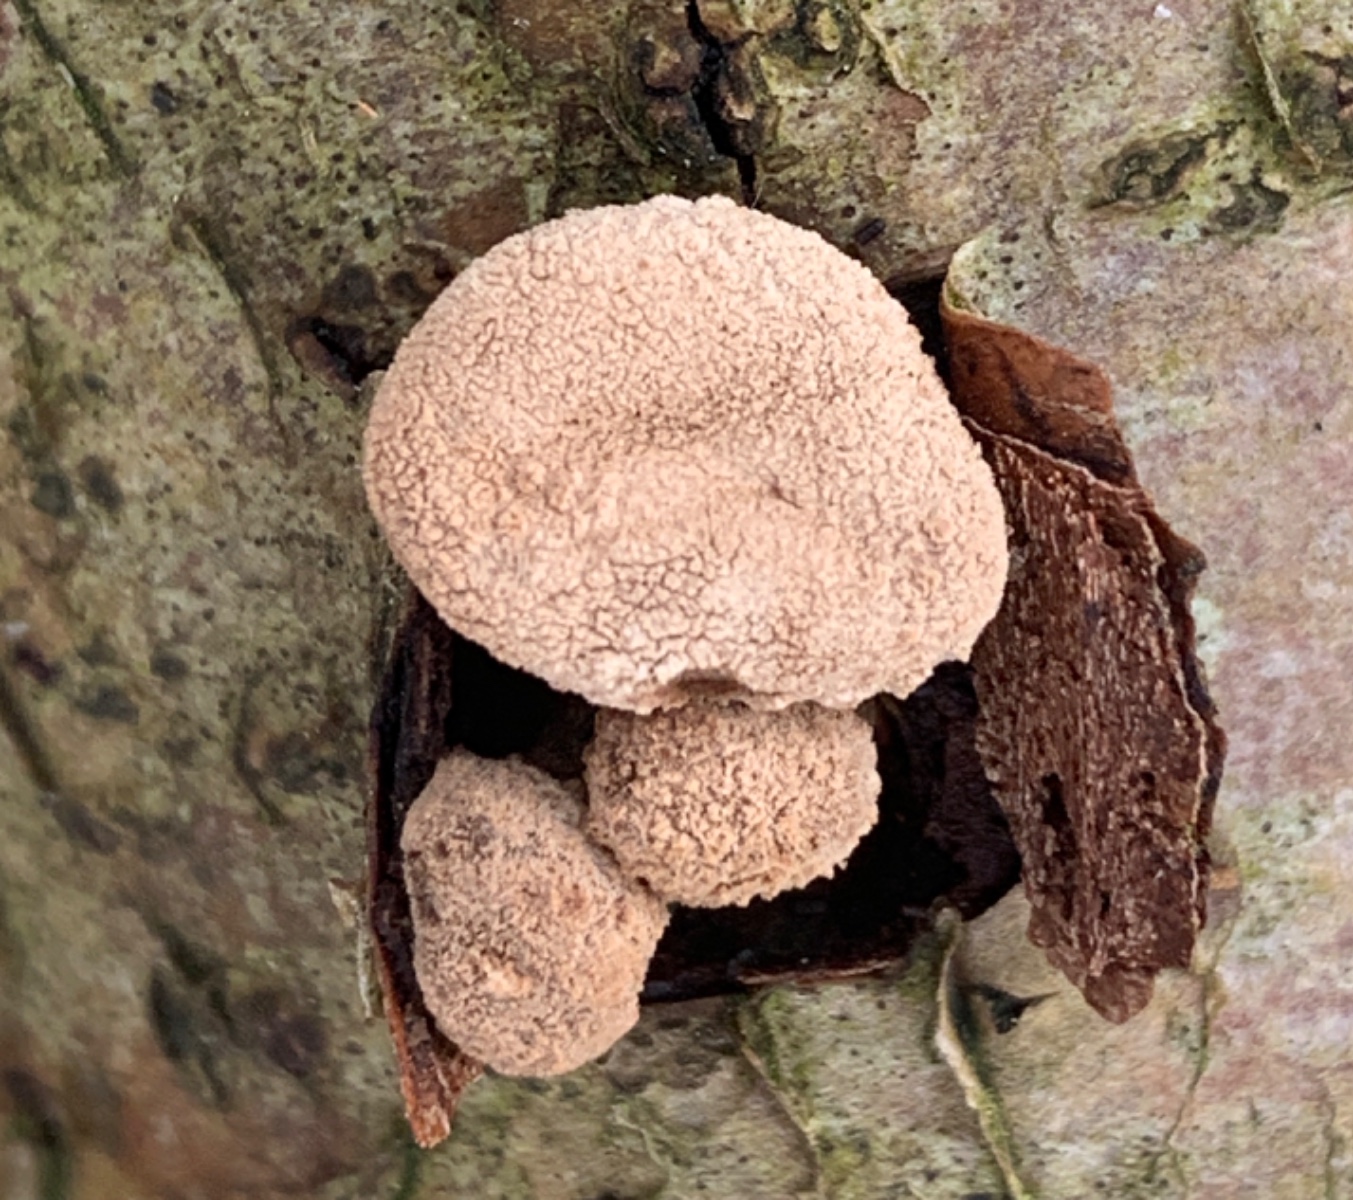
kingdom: Fungi
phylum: Ascomycota
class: Leotiomycetes
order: Helotiales
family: Cenangiaceae
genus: Encoelia
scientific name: Encoelia furfuracea
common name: hassel-læderskive
